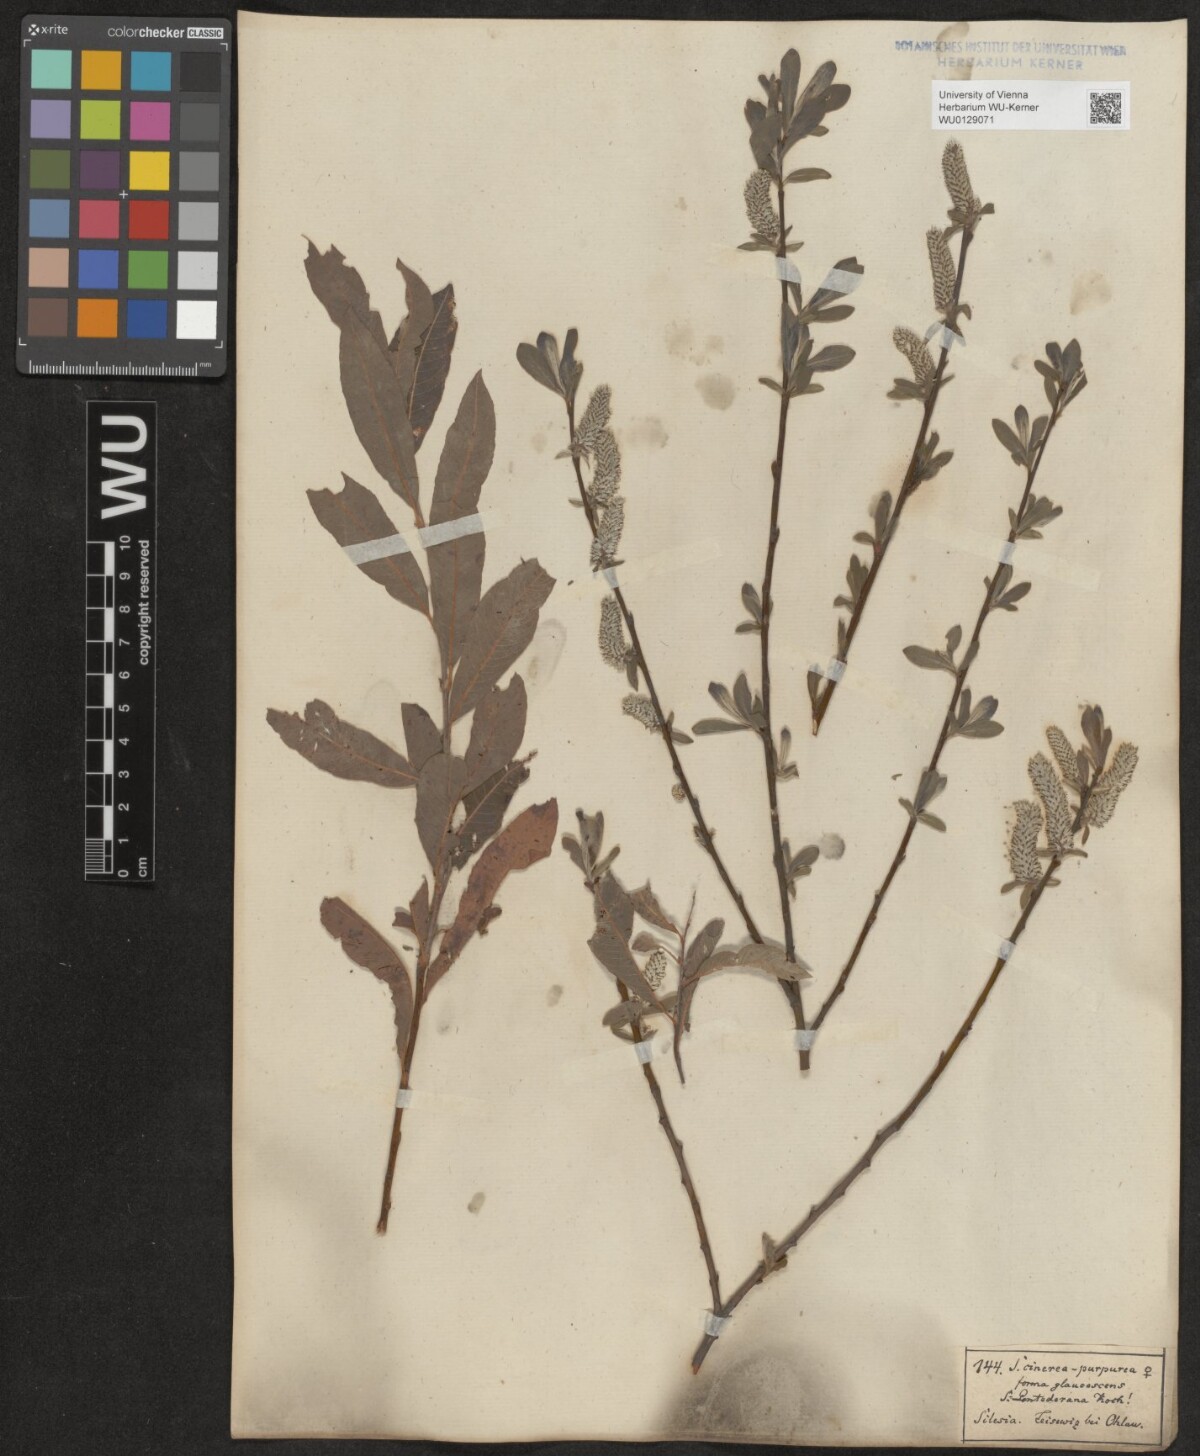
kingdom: Plantae
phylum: Tracheophyta
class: Magnoliopsida
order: Malpighiales
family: Salicaceae
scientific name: Salicaceae
